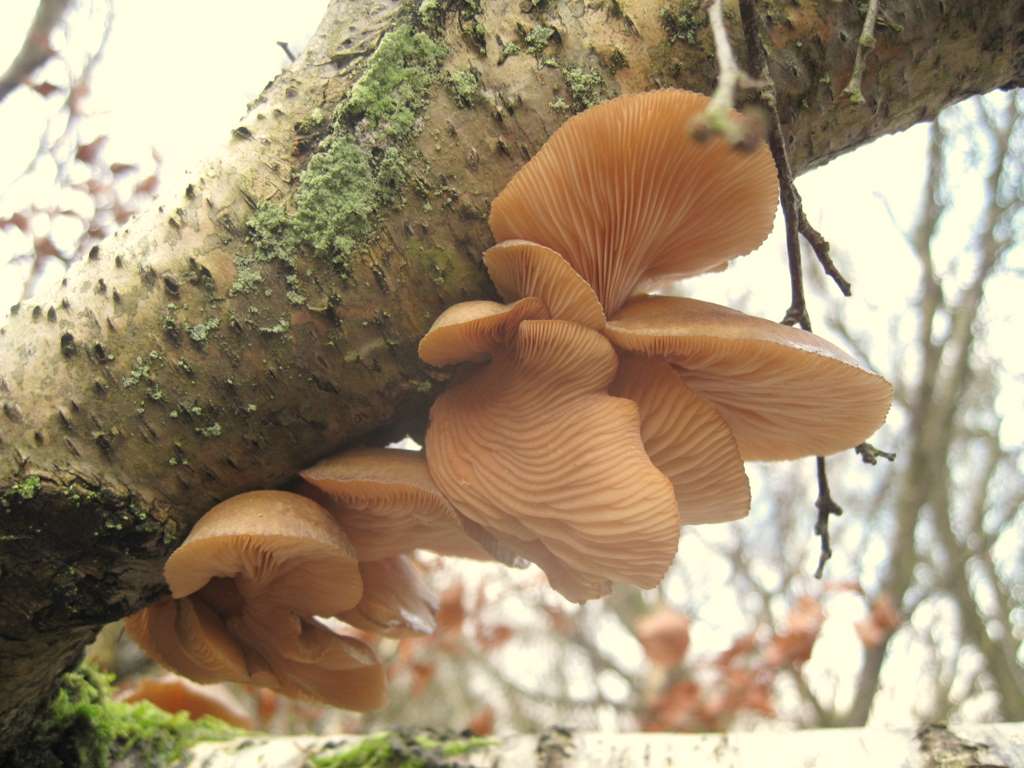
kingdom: Fungi
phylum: Basidiomycota
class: Agaricomycetes
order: Agaricales
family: Sarcomyxaceae
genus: Sarcomyxa
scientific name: Sarcomyxa serotina
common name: gummihat
